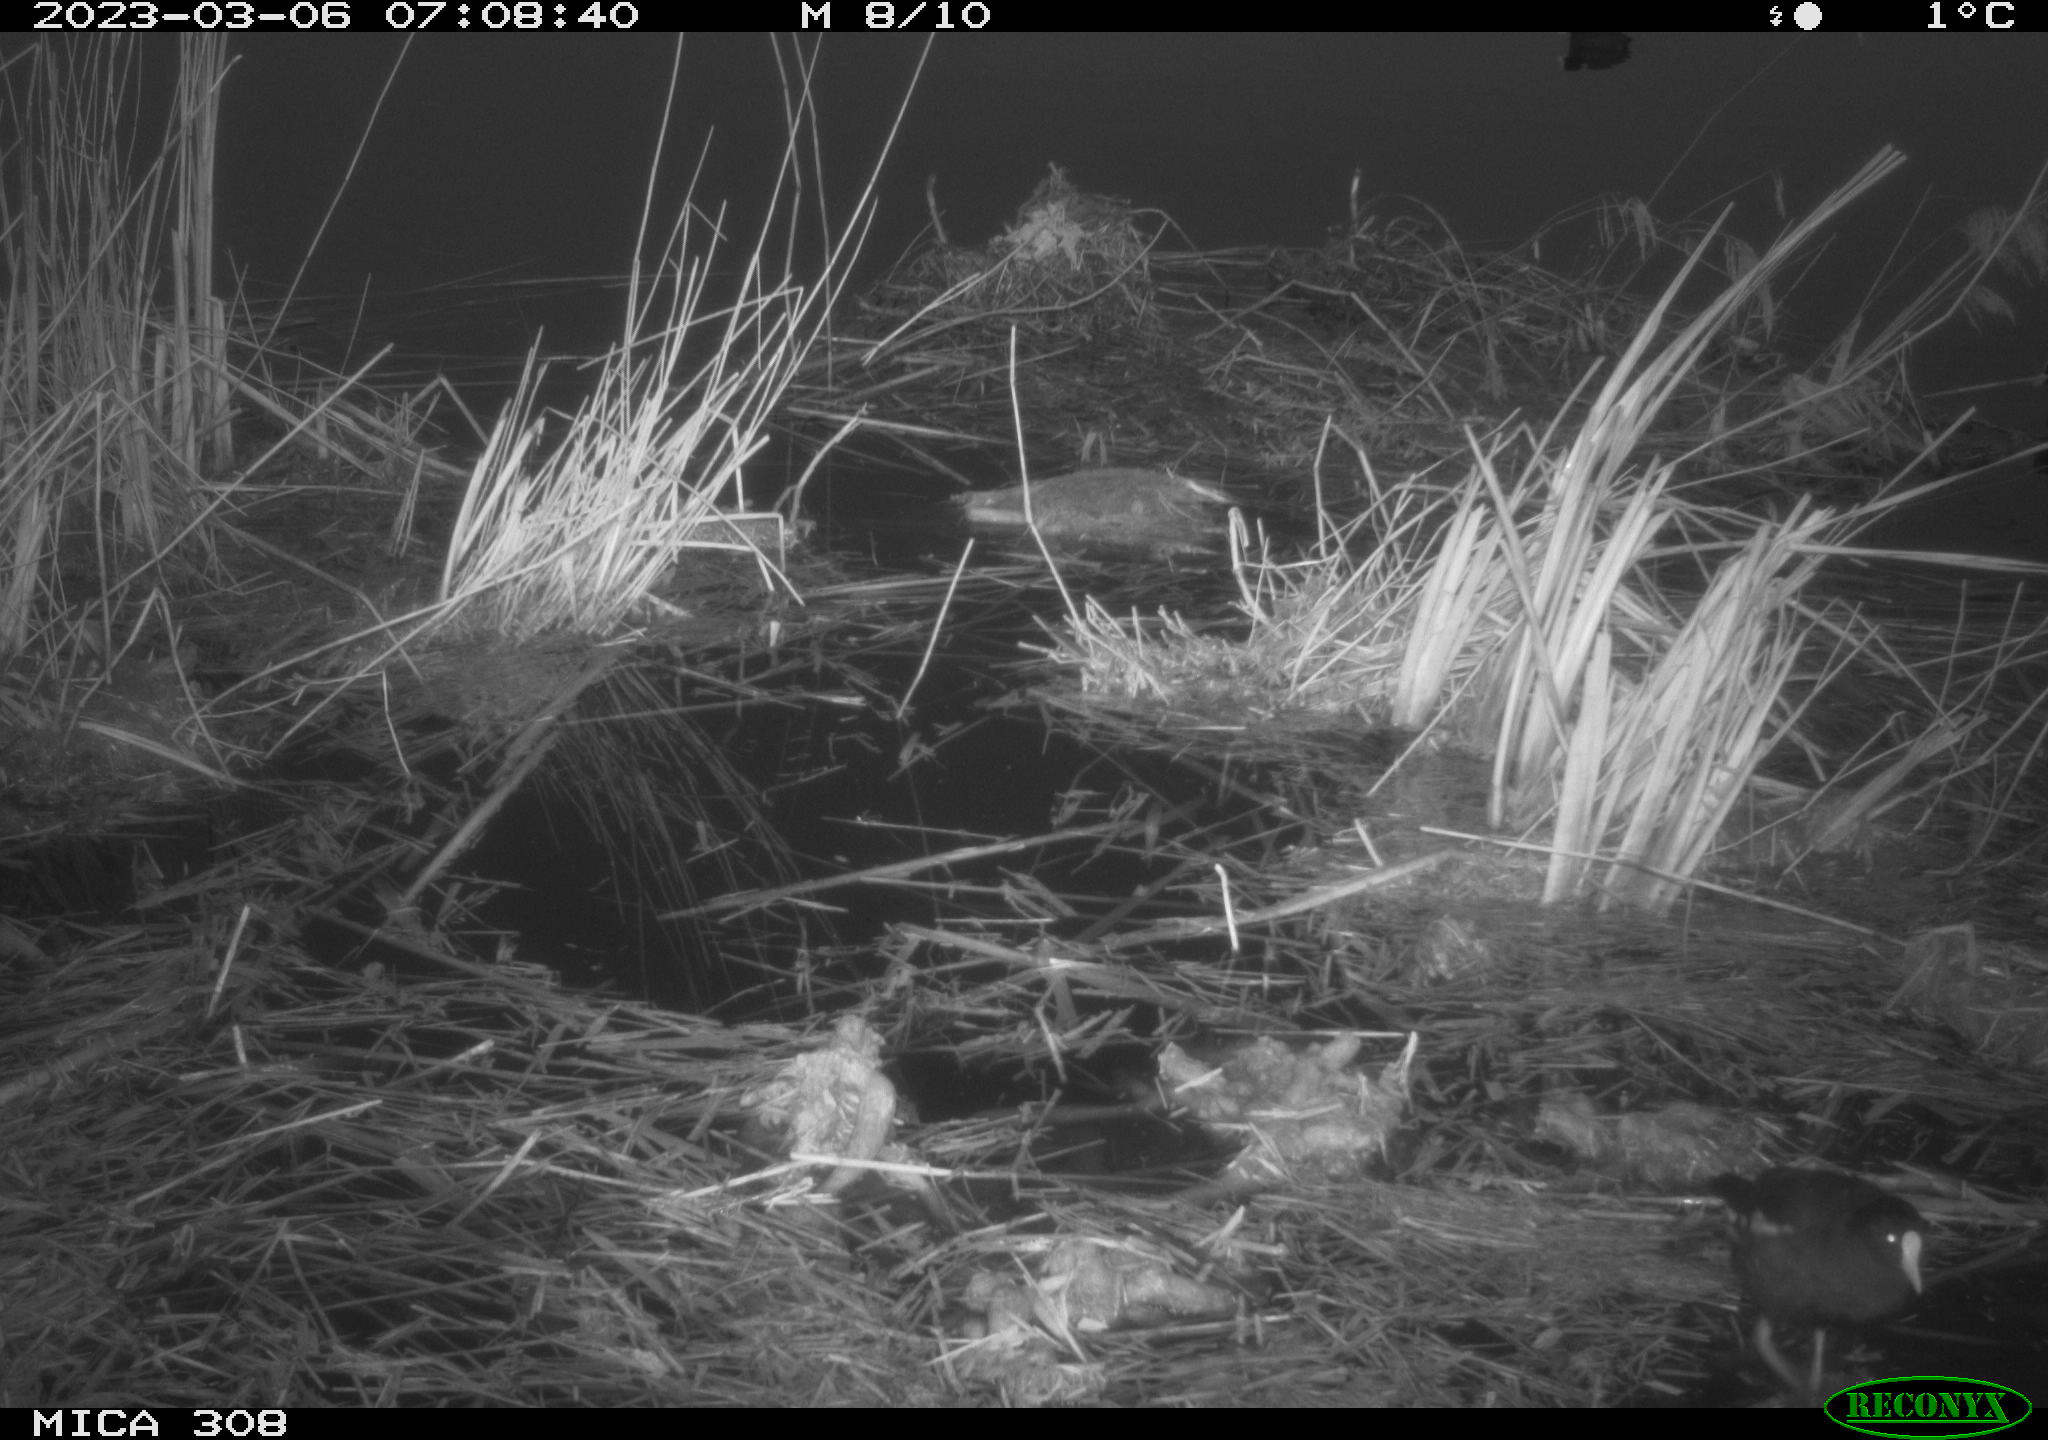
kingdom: Animalia
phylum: Chordata
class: Mammalia
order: Rodentia
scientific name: Rodentia
